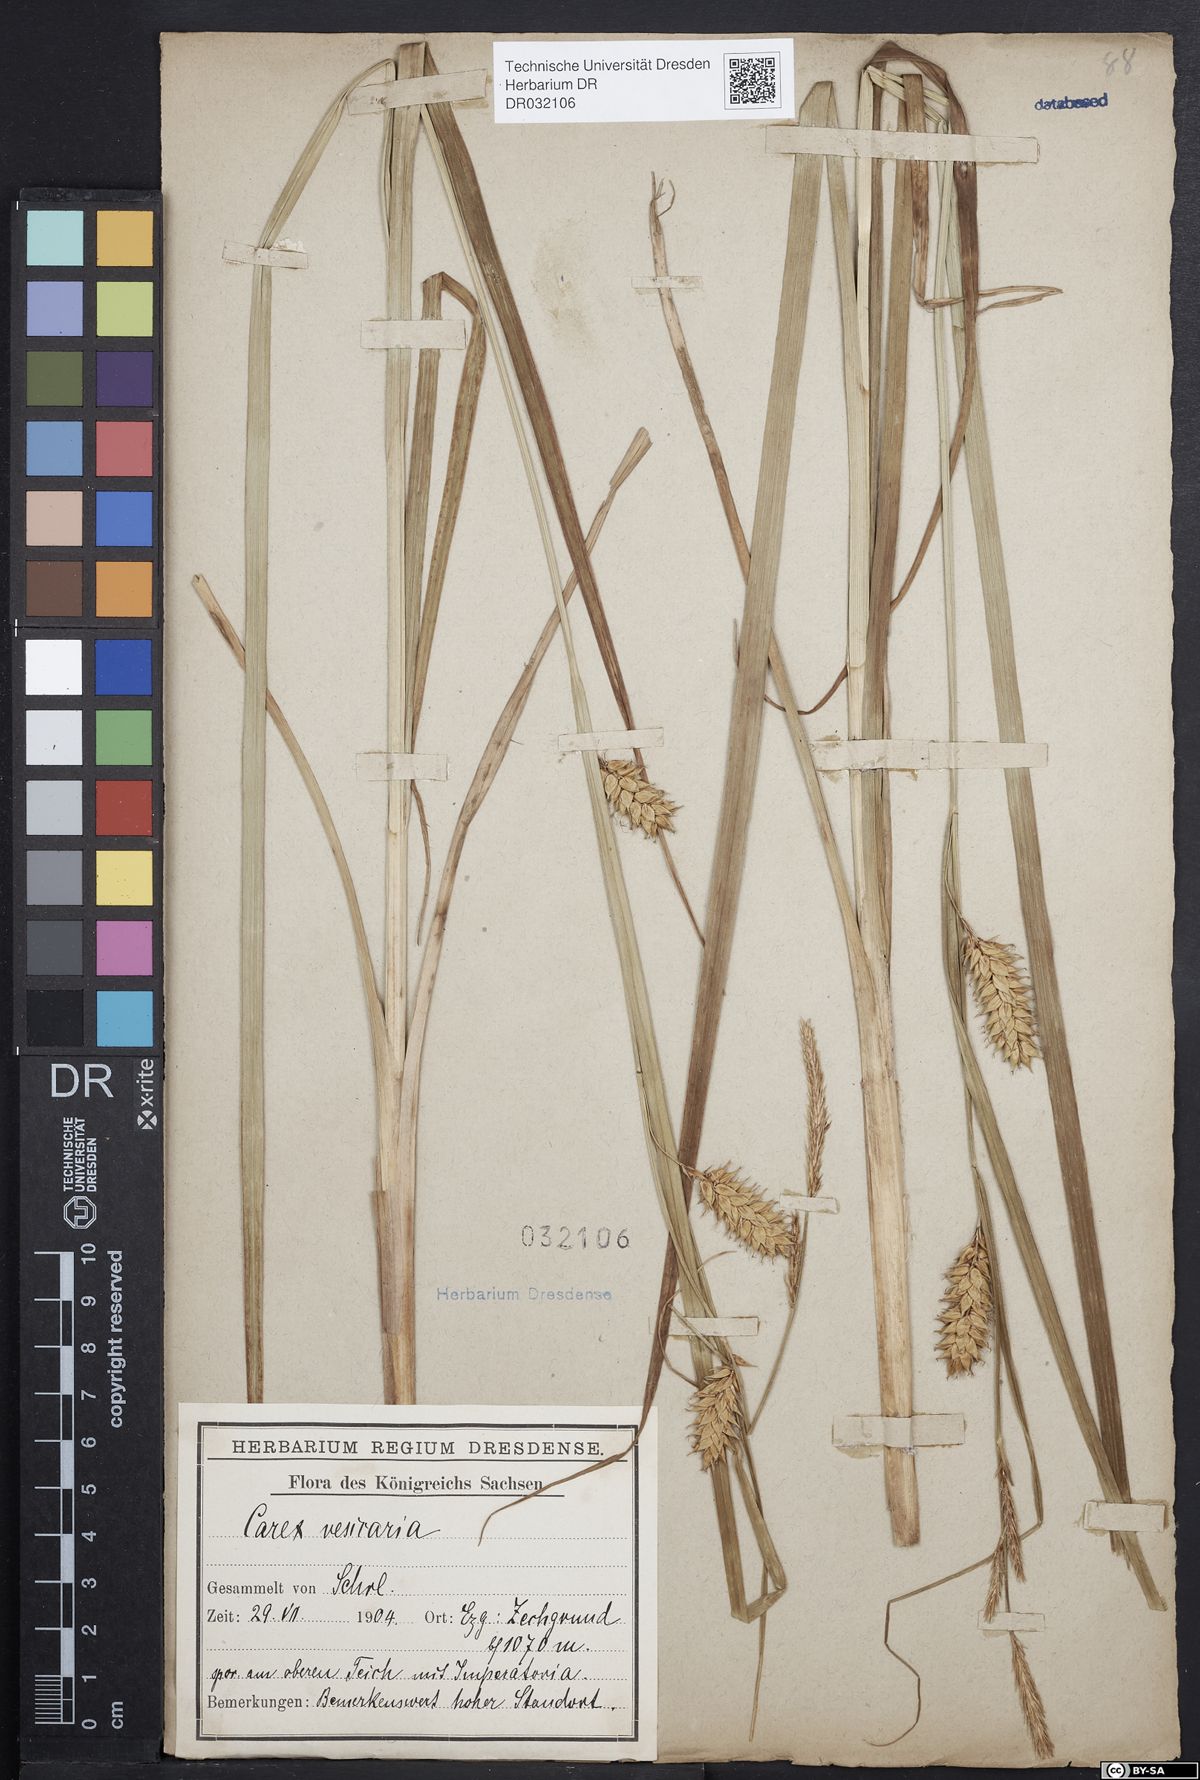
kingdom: Plantae
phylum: Tracheophyta
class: Liliopsida
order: Poales
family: Cyperaceae
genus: Carex
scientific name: Carex vesicaria
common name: Bladder-sedge
